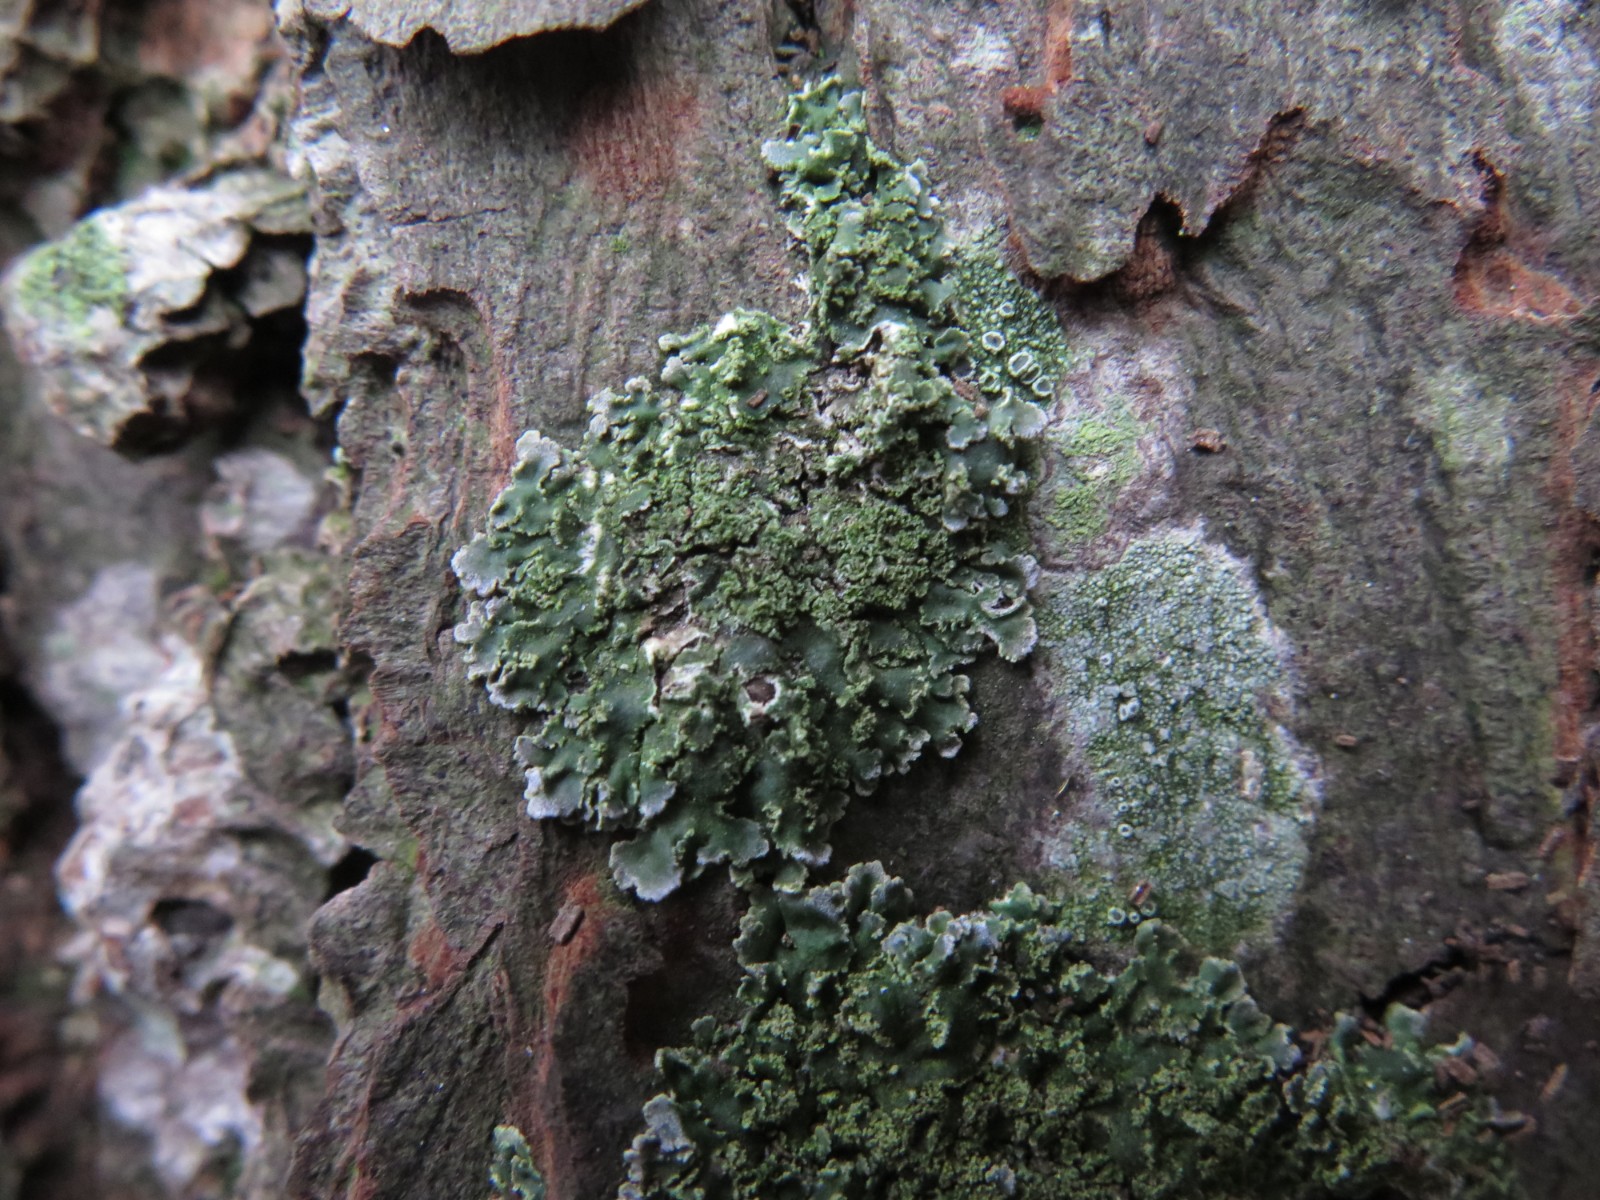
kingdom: Fungi
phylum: Ascomycota
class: Lecanoromycetes
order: Caliciales
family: Physciaceae
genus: Physconia
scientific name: Physconia perisidiosa
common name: liden dugrosetlav
